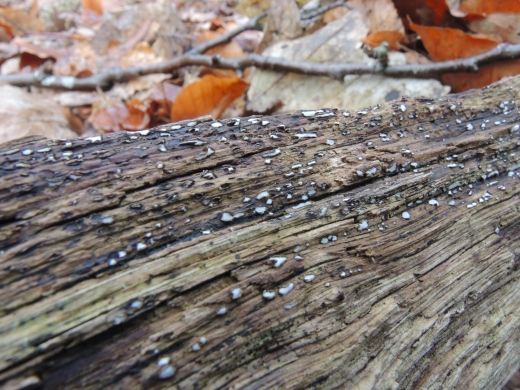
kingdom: Fungi
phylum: Ascomycota
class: Leotiomycetes
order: Chaetomellales
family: Marthamycetaceae
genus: Propolis
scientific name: Propolis farinosa
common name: almindelig vedsprængerskive
